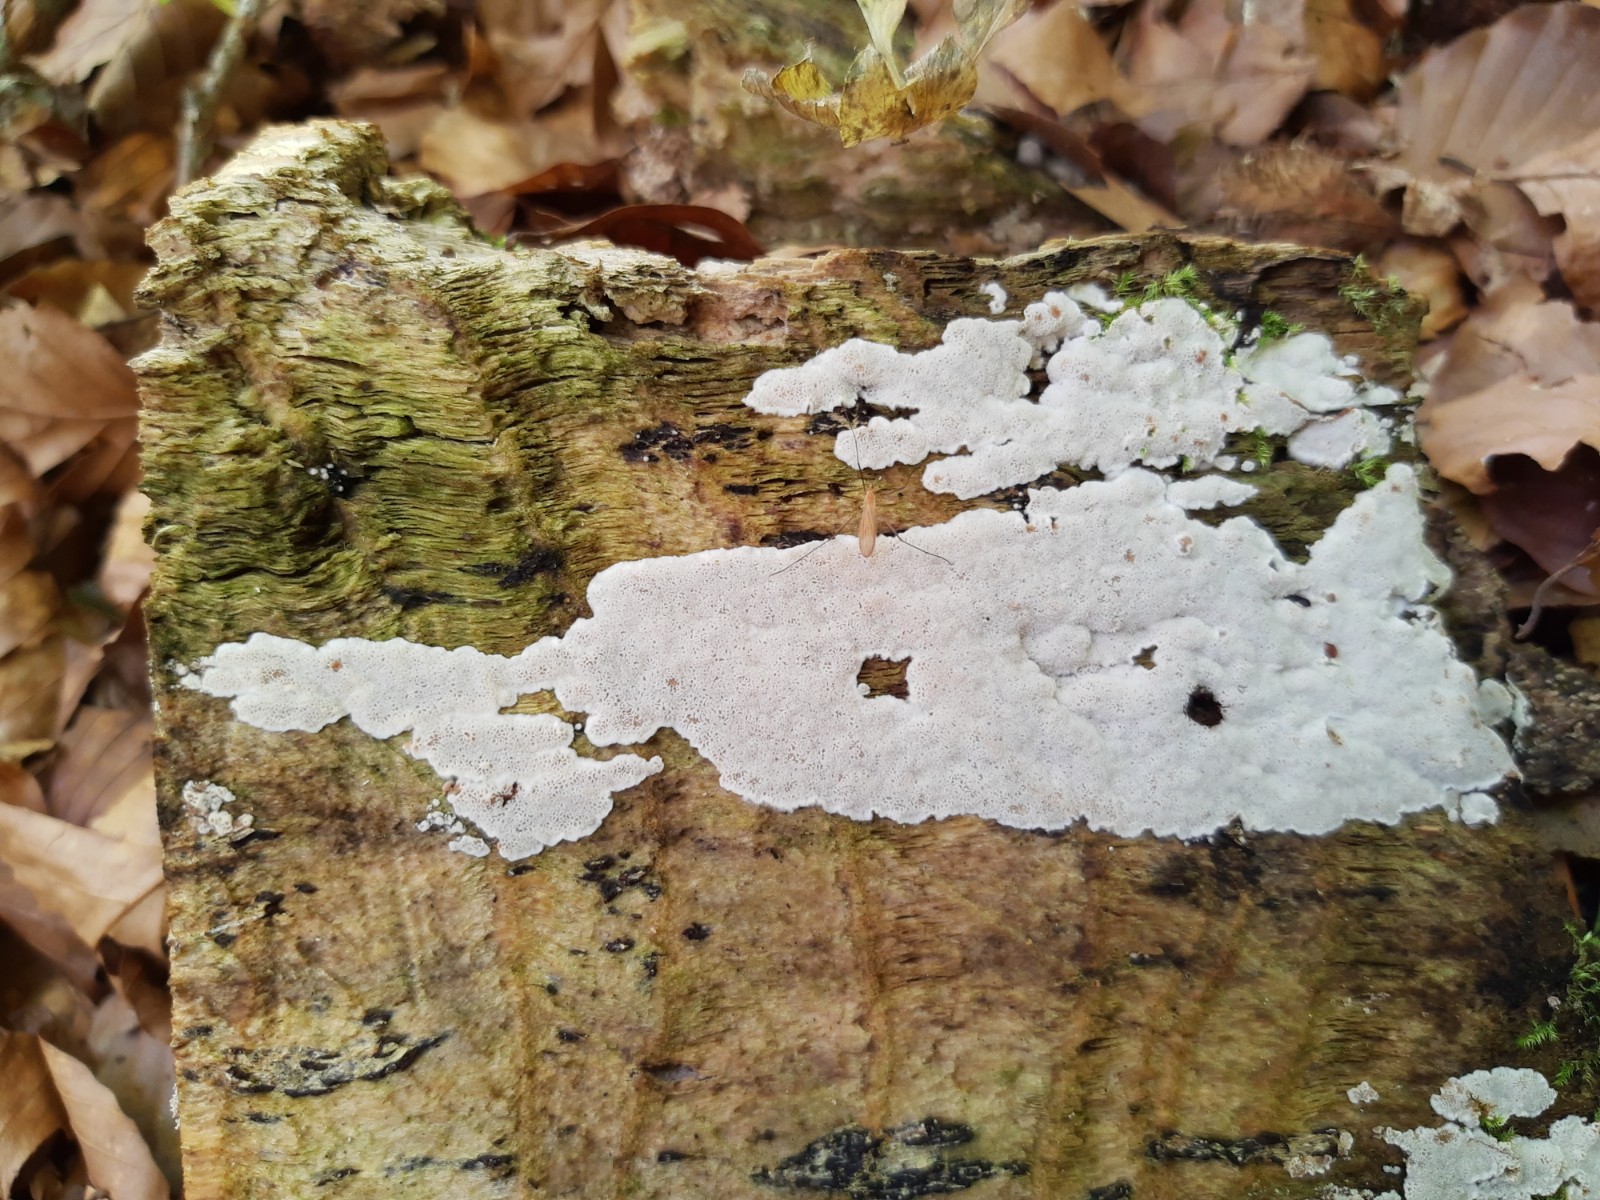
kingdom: Fungi
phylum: Basidiomycota
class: Agaricomycetes
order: Polyporales
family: Meripilaceae
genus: Rigidoporus
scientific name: Rigidoporus sanguinolentus
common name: blod-skorpeporesvamp
